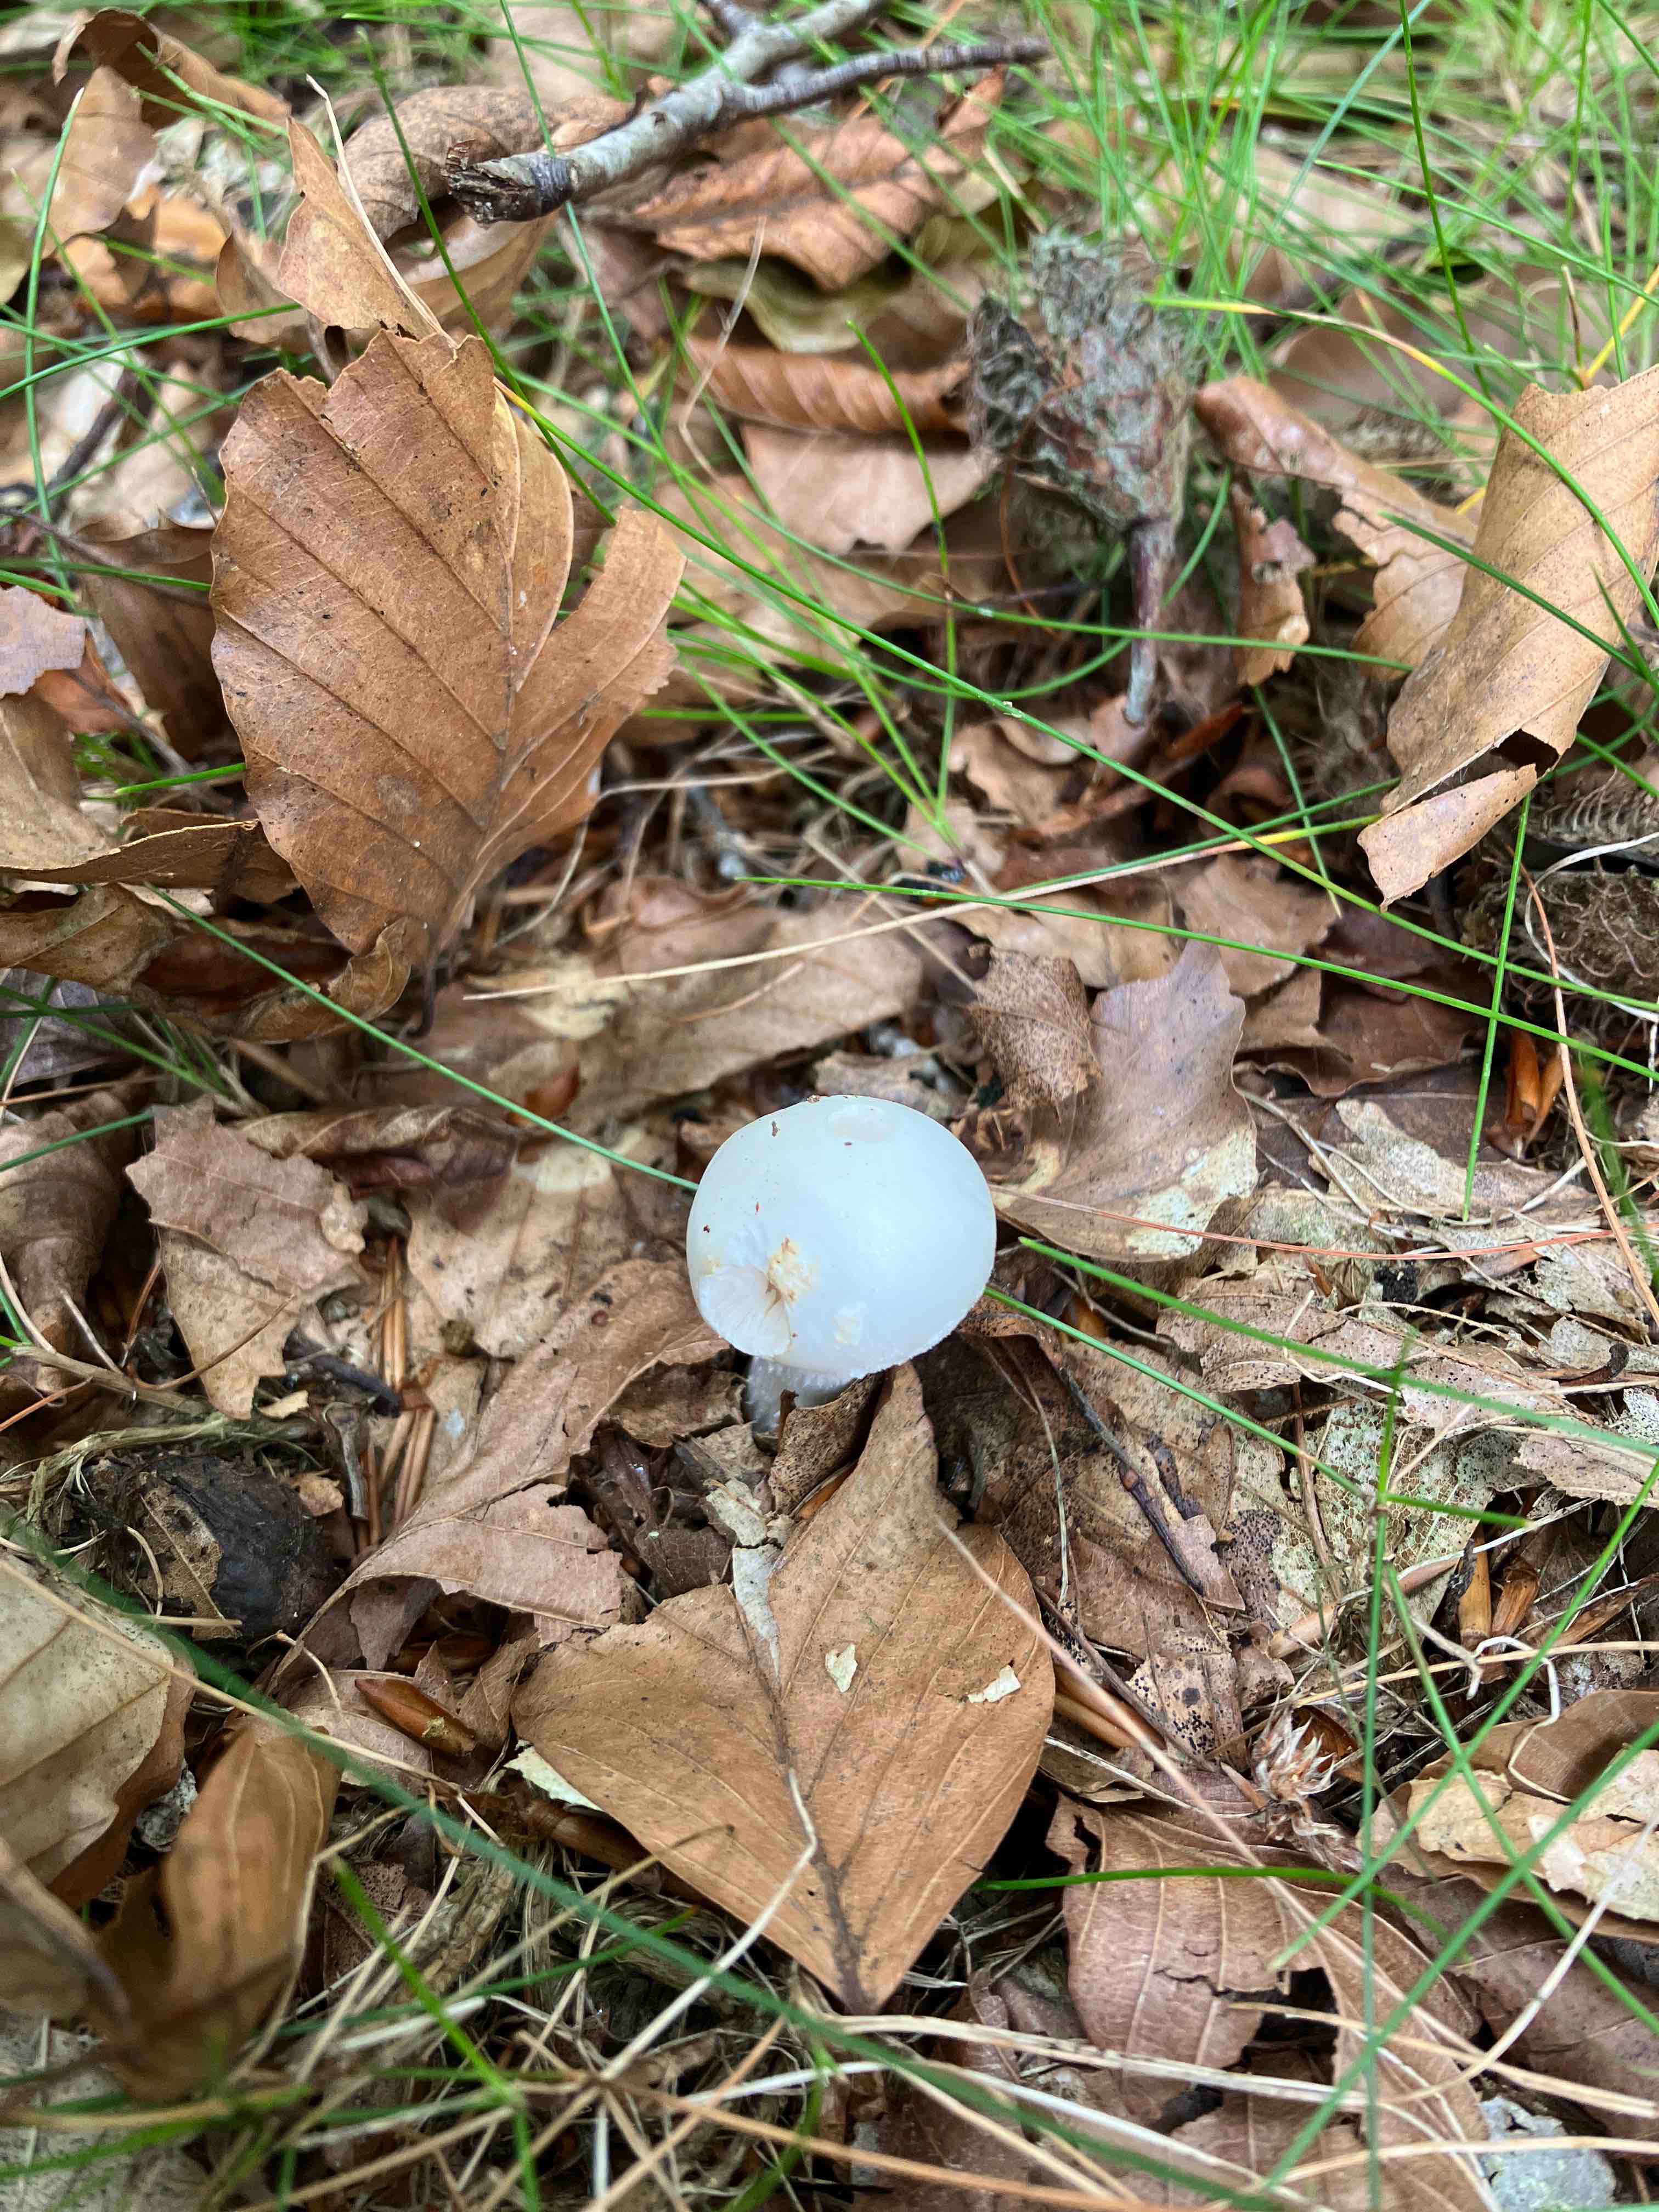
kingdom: Fungi
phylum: Basidiomycota
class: Agaricomycetes
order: Agaricales
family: Amanitaceae
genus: Amanita
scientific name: Amanita citrina
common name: False death-cap
